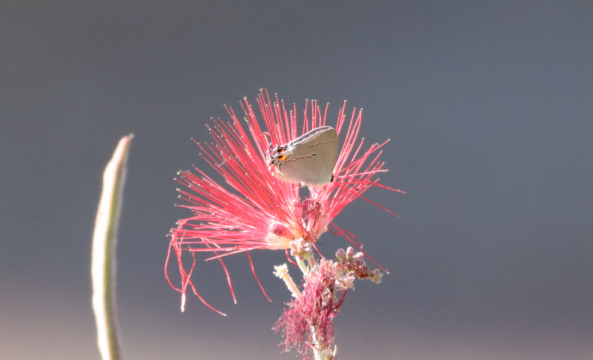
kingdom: Animalia
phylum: Arthropoda
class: Insecta
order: Lepidoptera
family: Lycaenidae
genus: Thecla
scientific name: Thecla marius
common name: Marius Hairstreak
